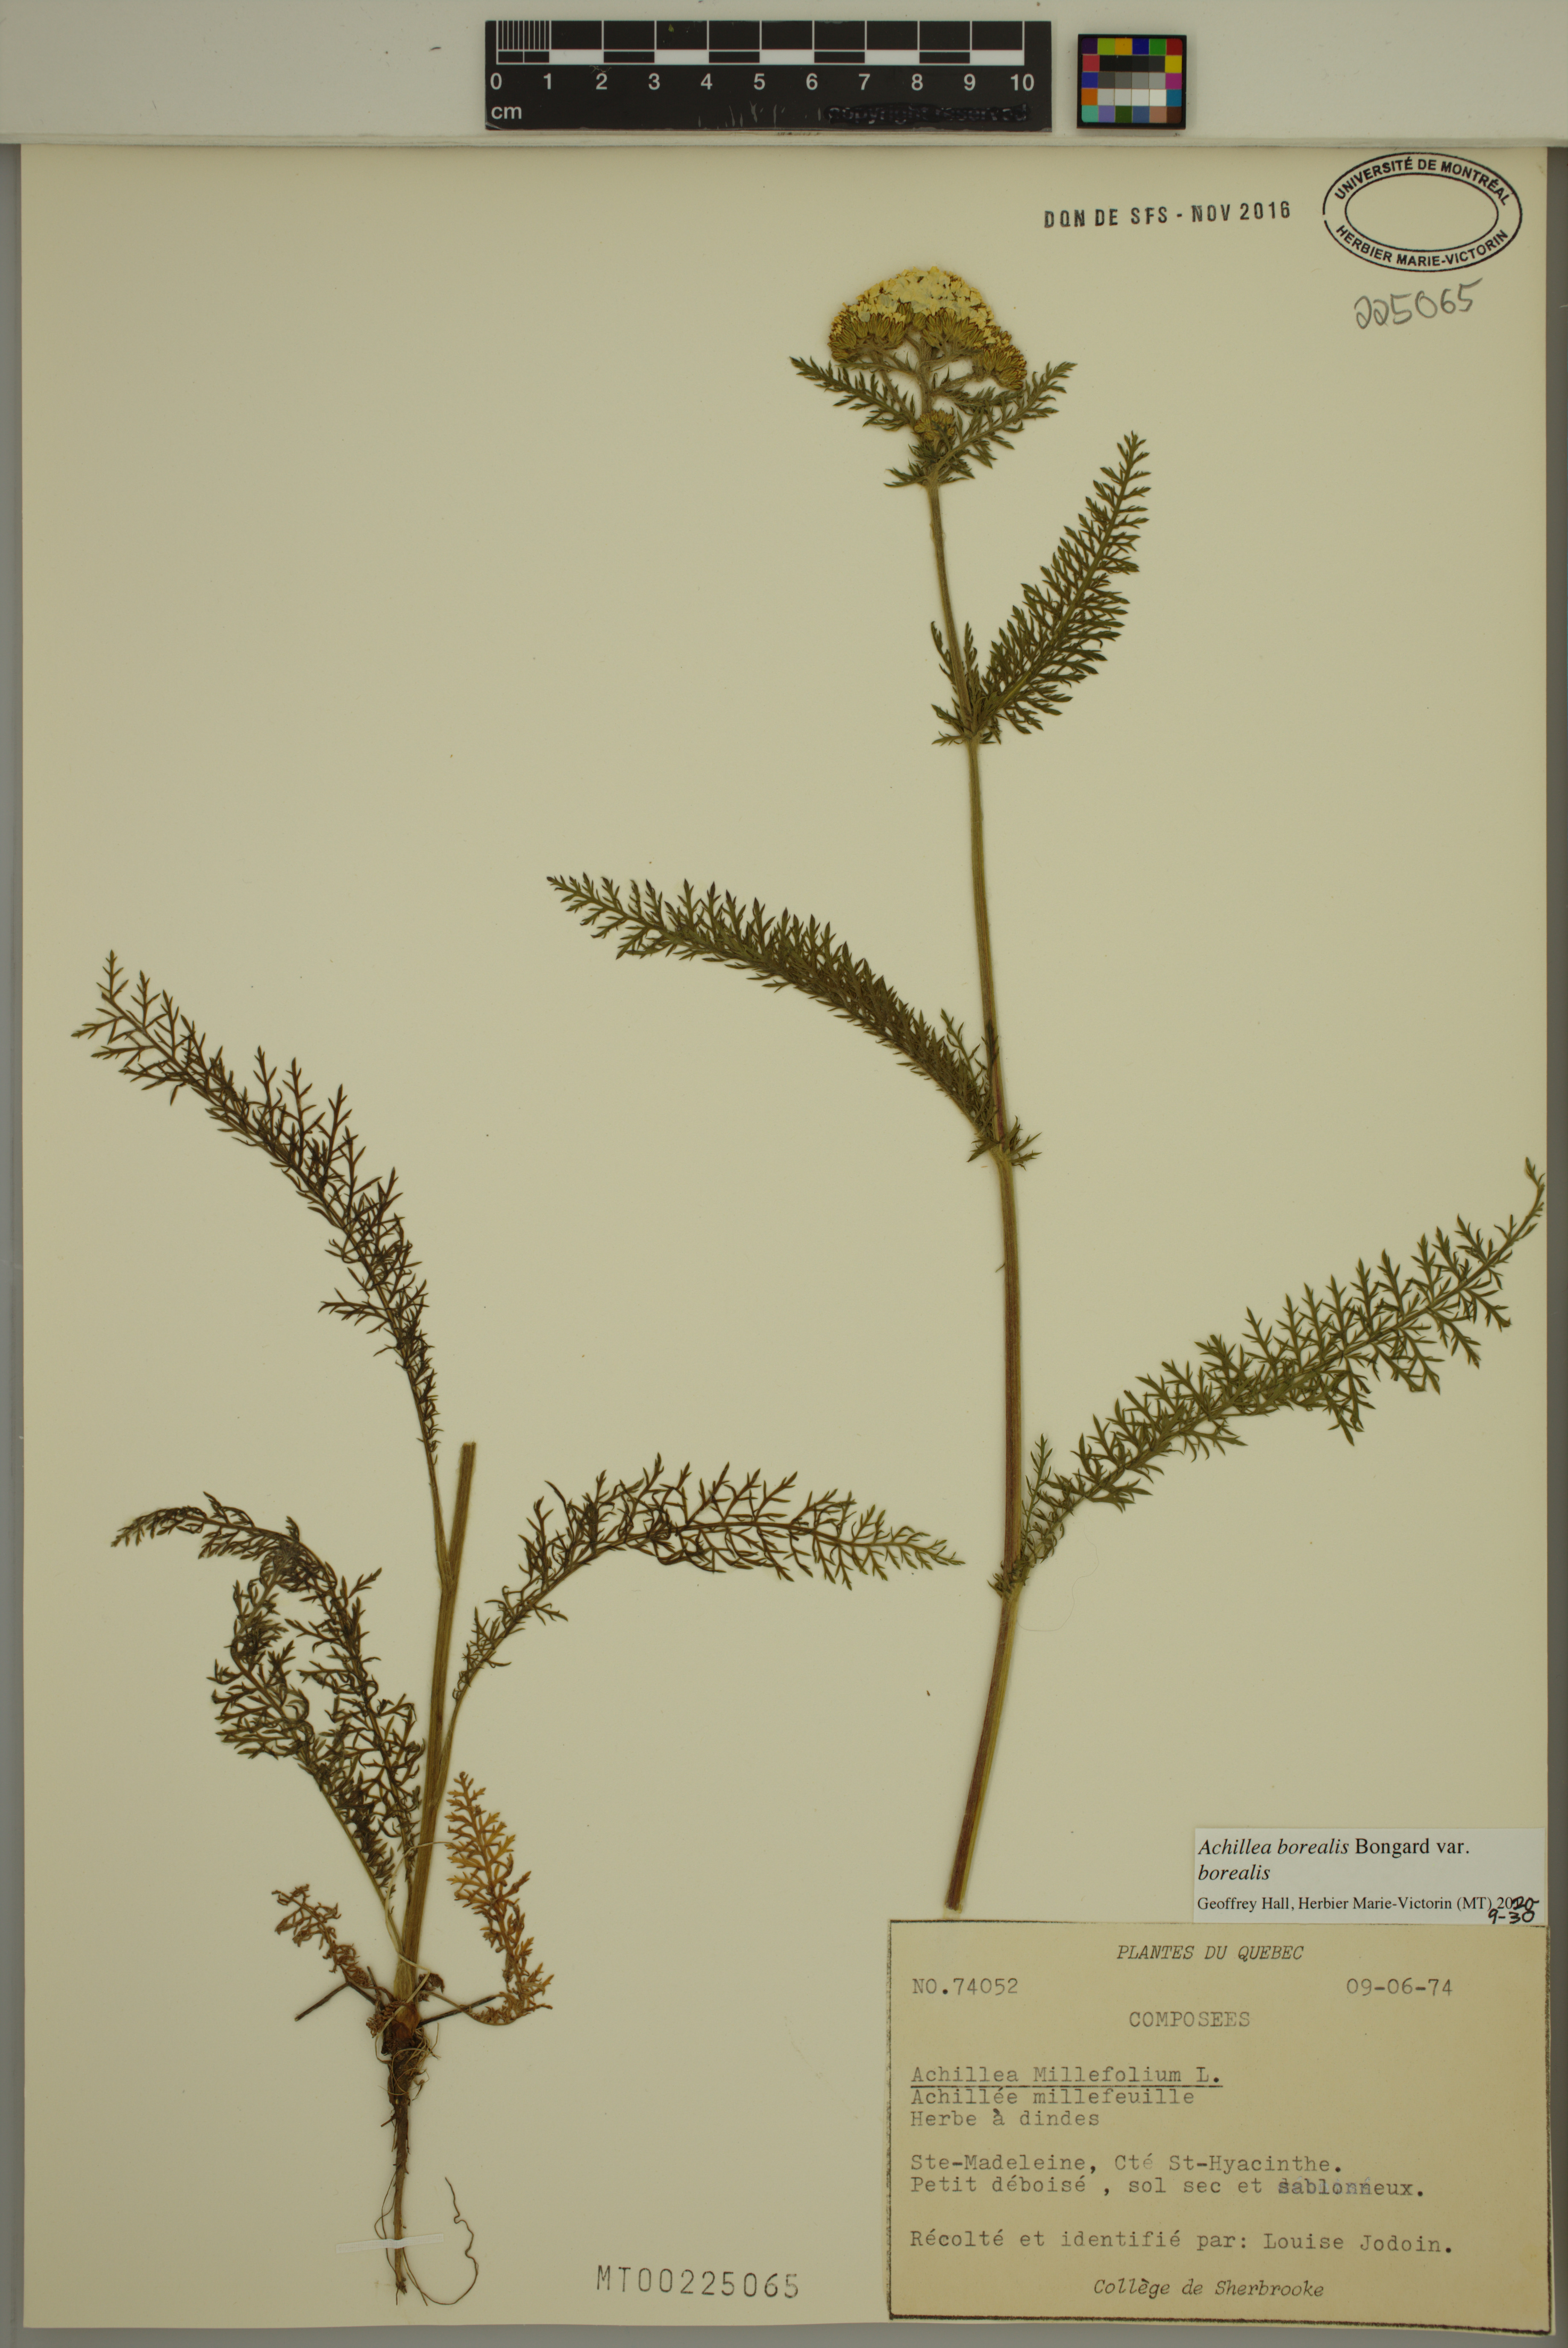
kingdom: Plantae
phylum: Tracheophyta
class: Magnoliopsida
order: Asterales
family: Asteraceae
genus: Achillea
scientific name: Achillea millefolium
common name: Yarrow
